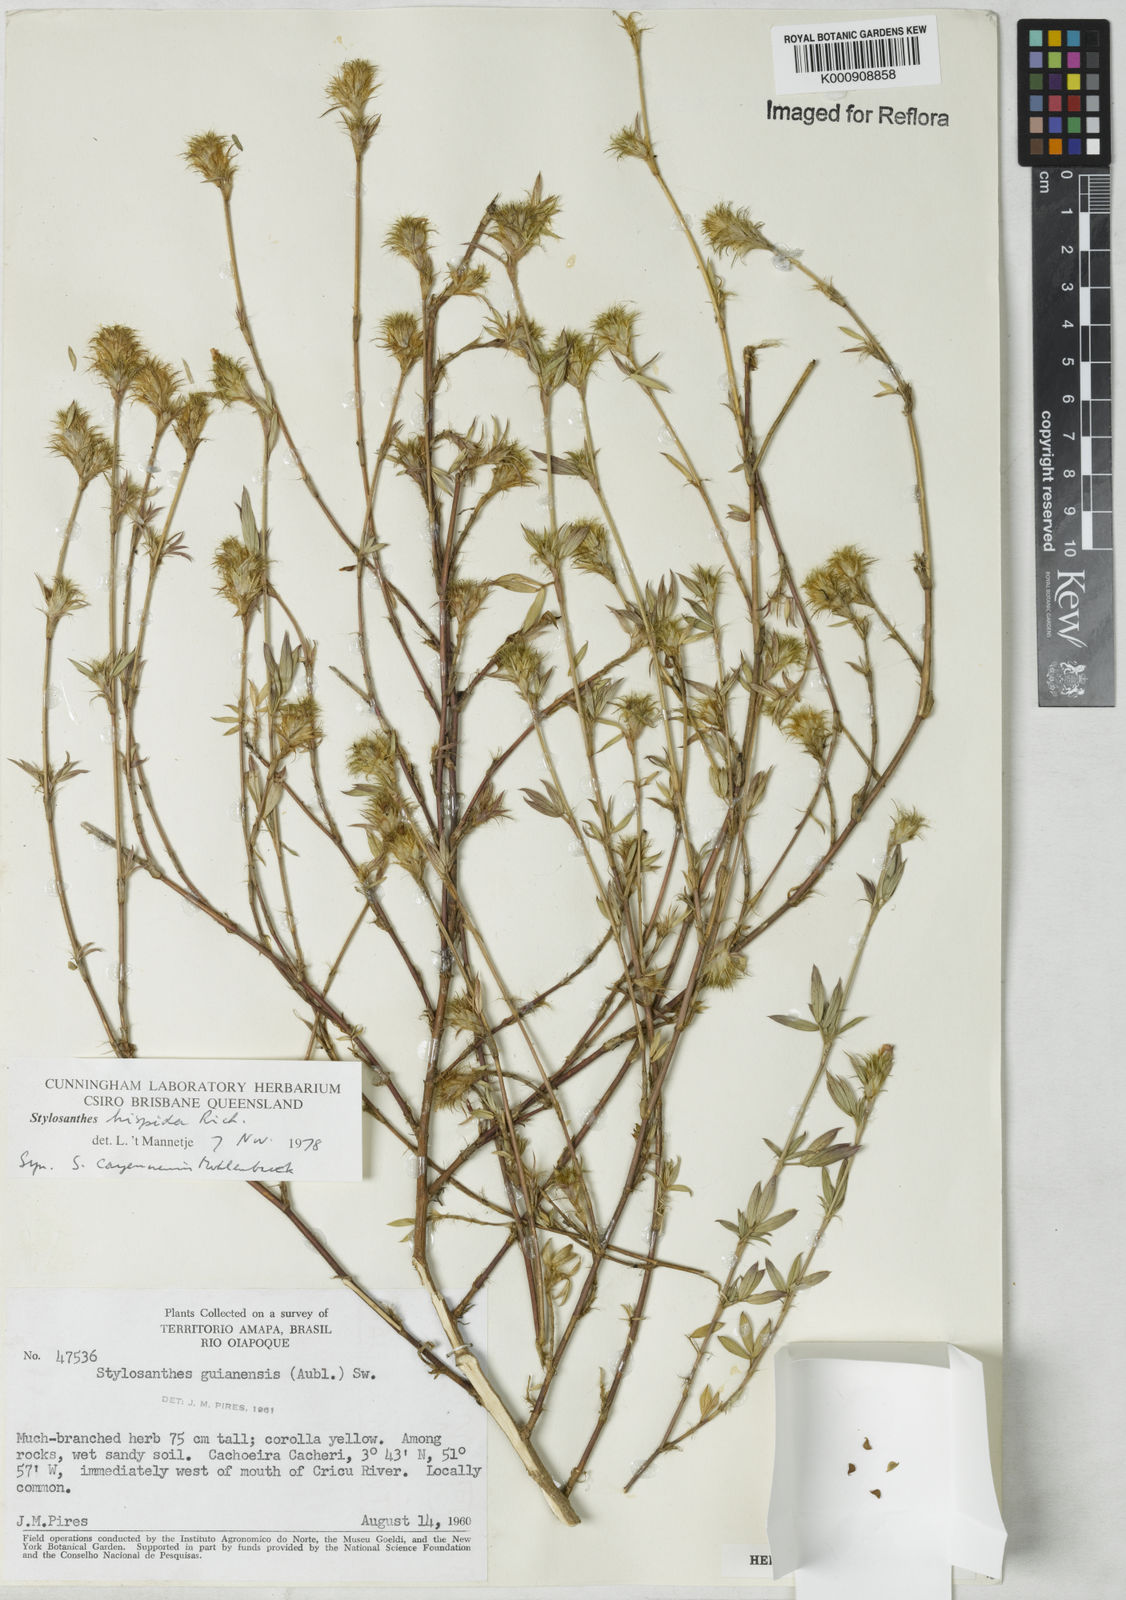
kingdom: Plantae
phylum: Tracheophyta
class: Magnoliopsida
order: Fabales
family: Fabaceae
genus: Stylosanthes
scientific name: Stylosanthes hispida
